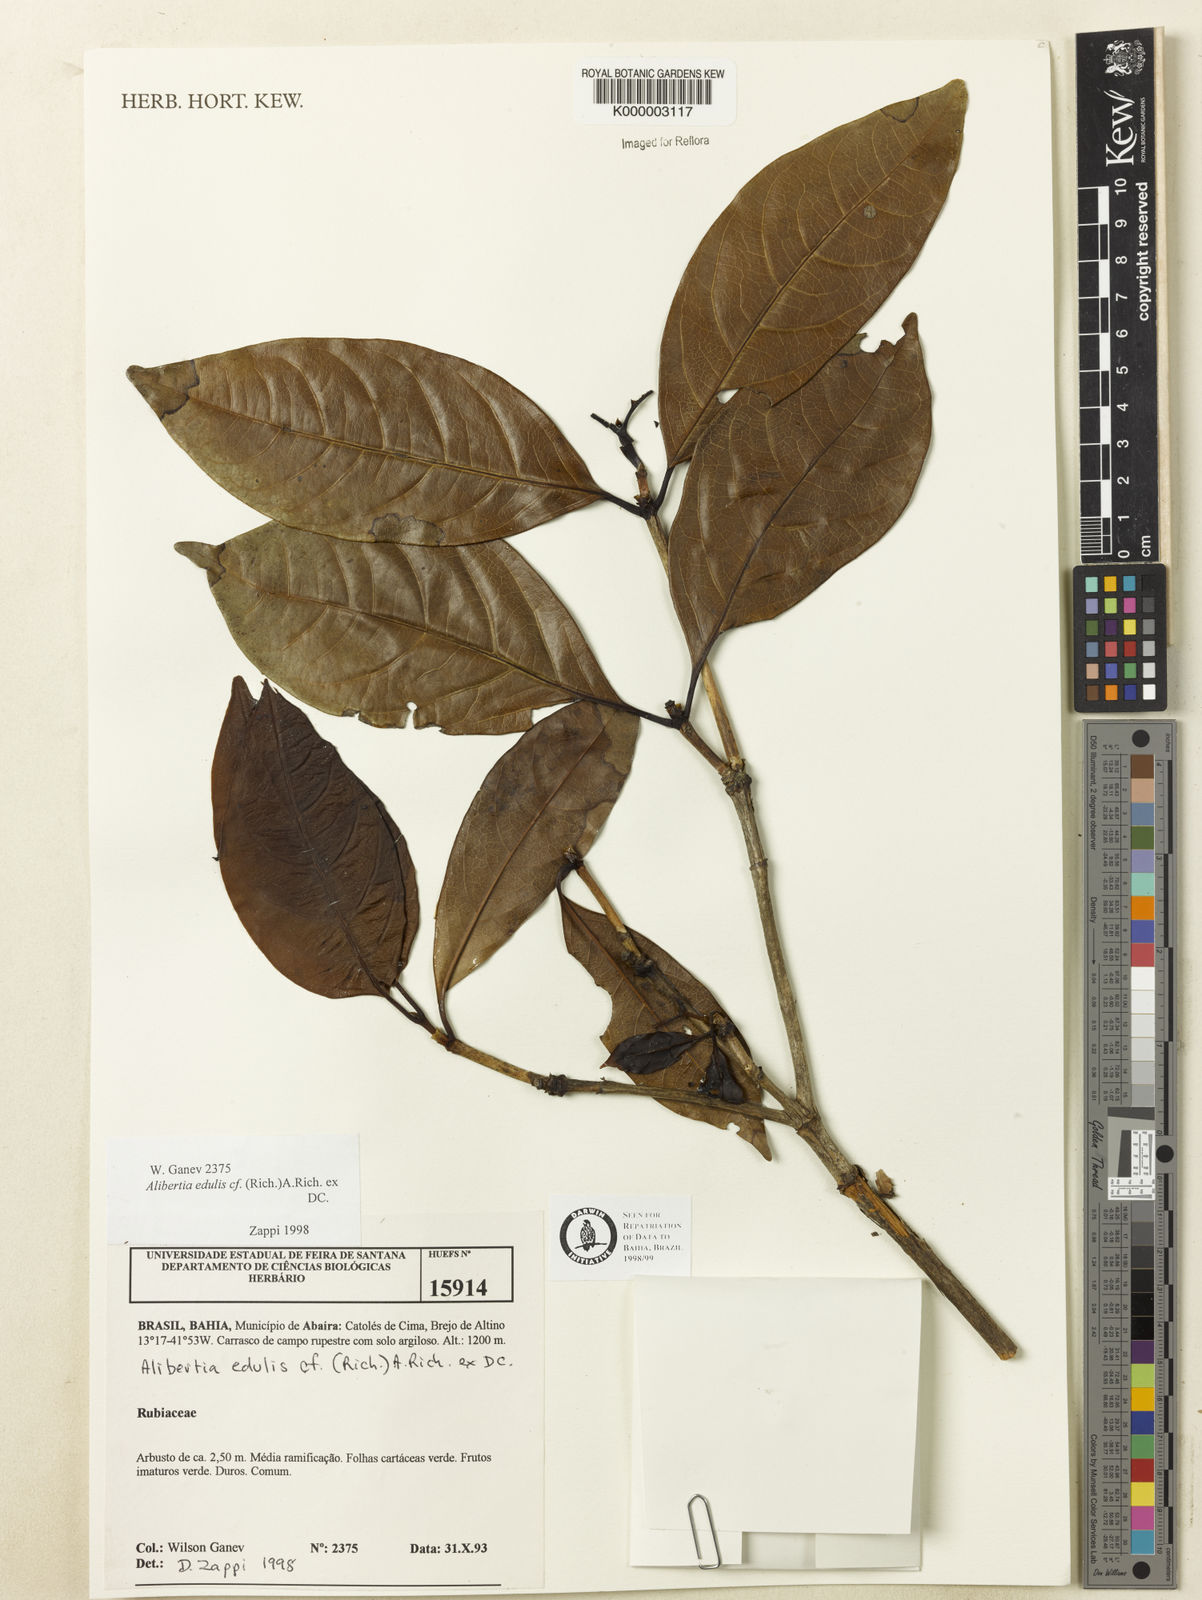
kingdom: Plantae
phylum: Tracheophyta
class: Magnoliopsida
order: Gentianales
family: Rubiaceae
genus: Alibertia
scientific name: Alibertia edulis
